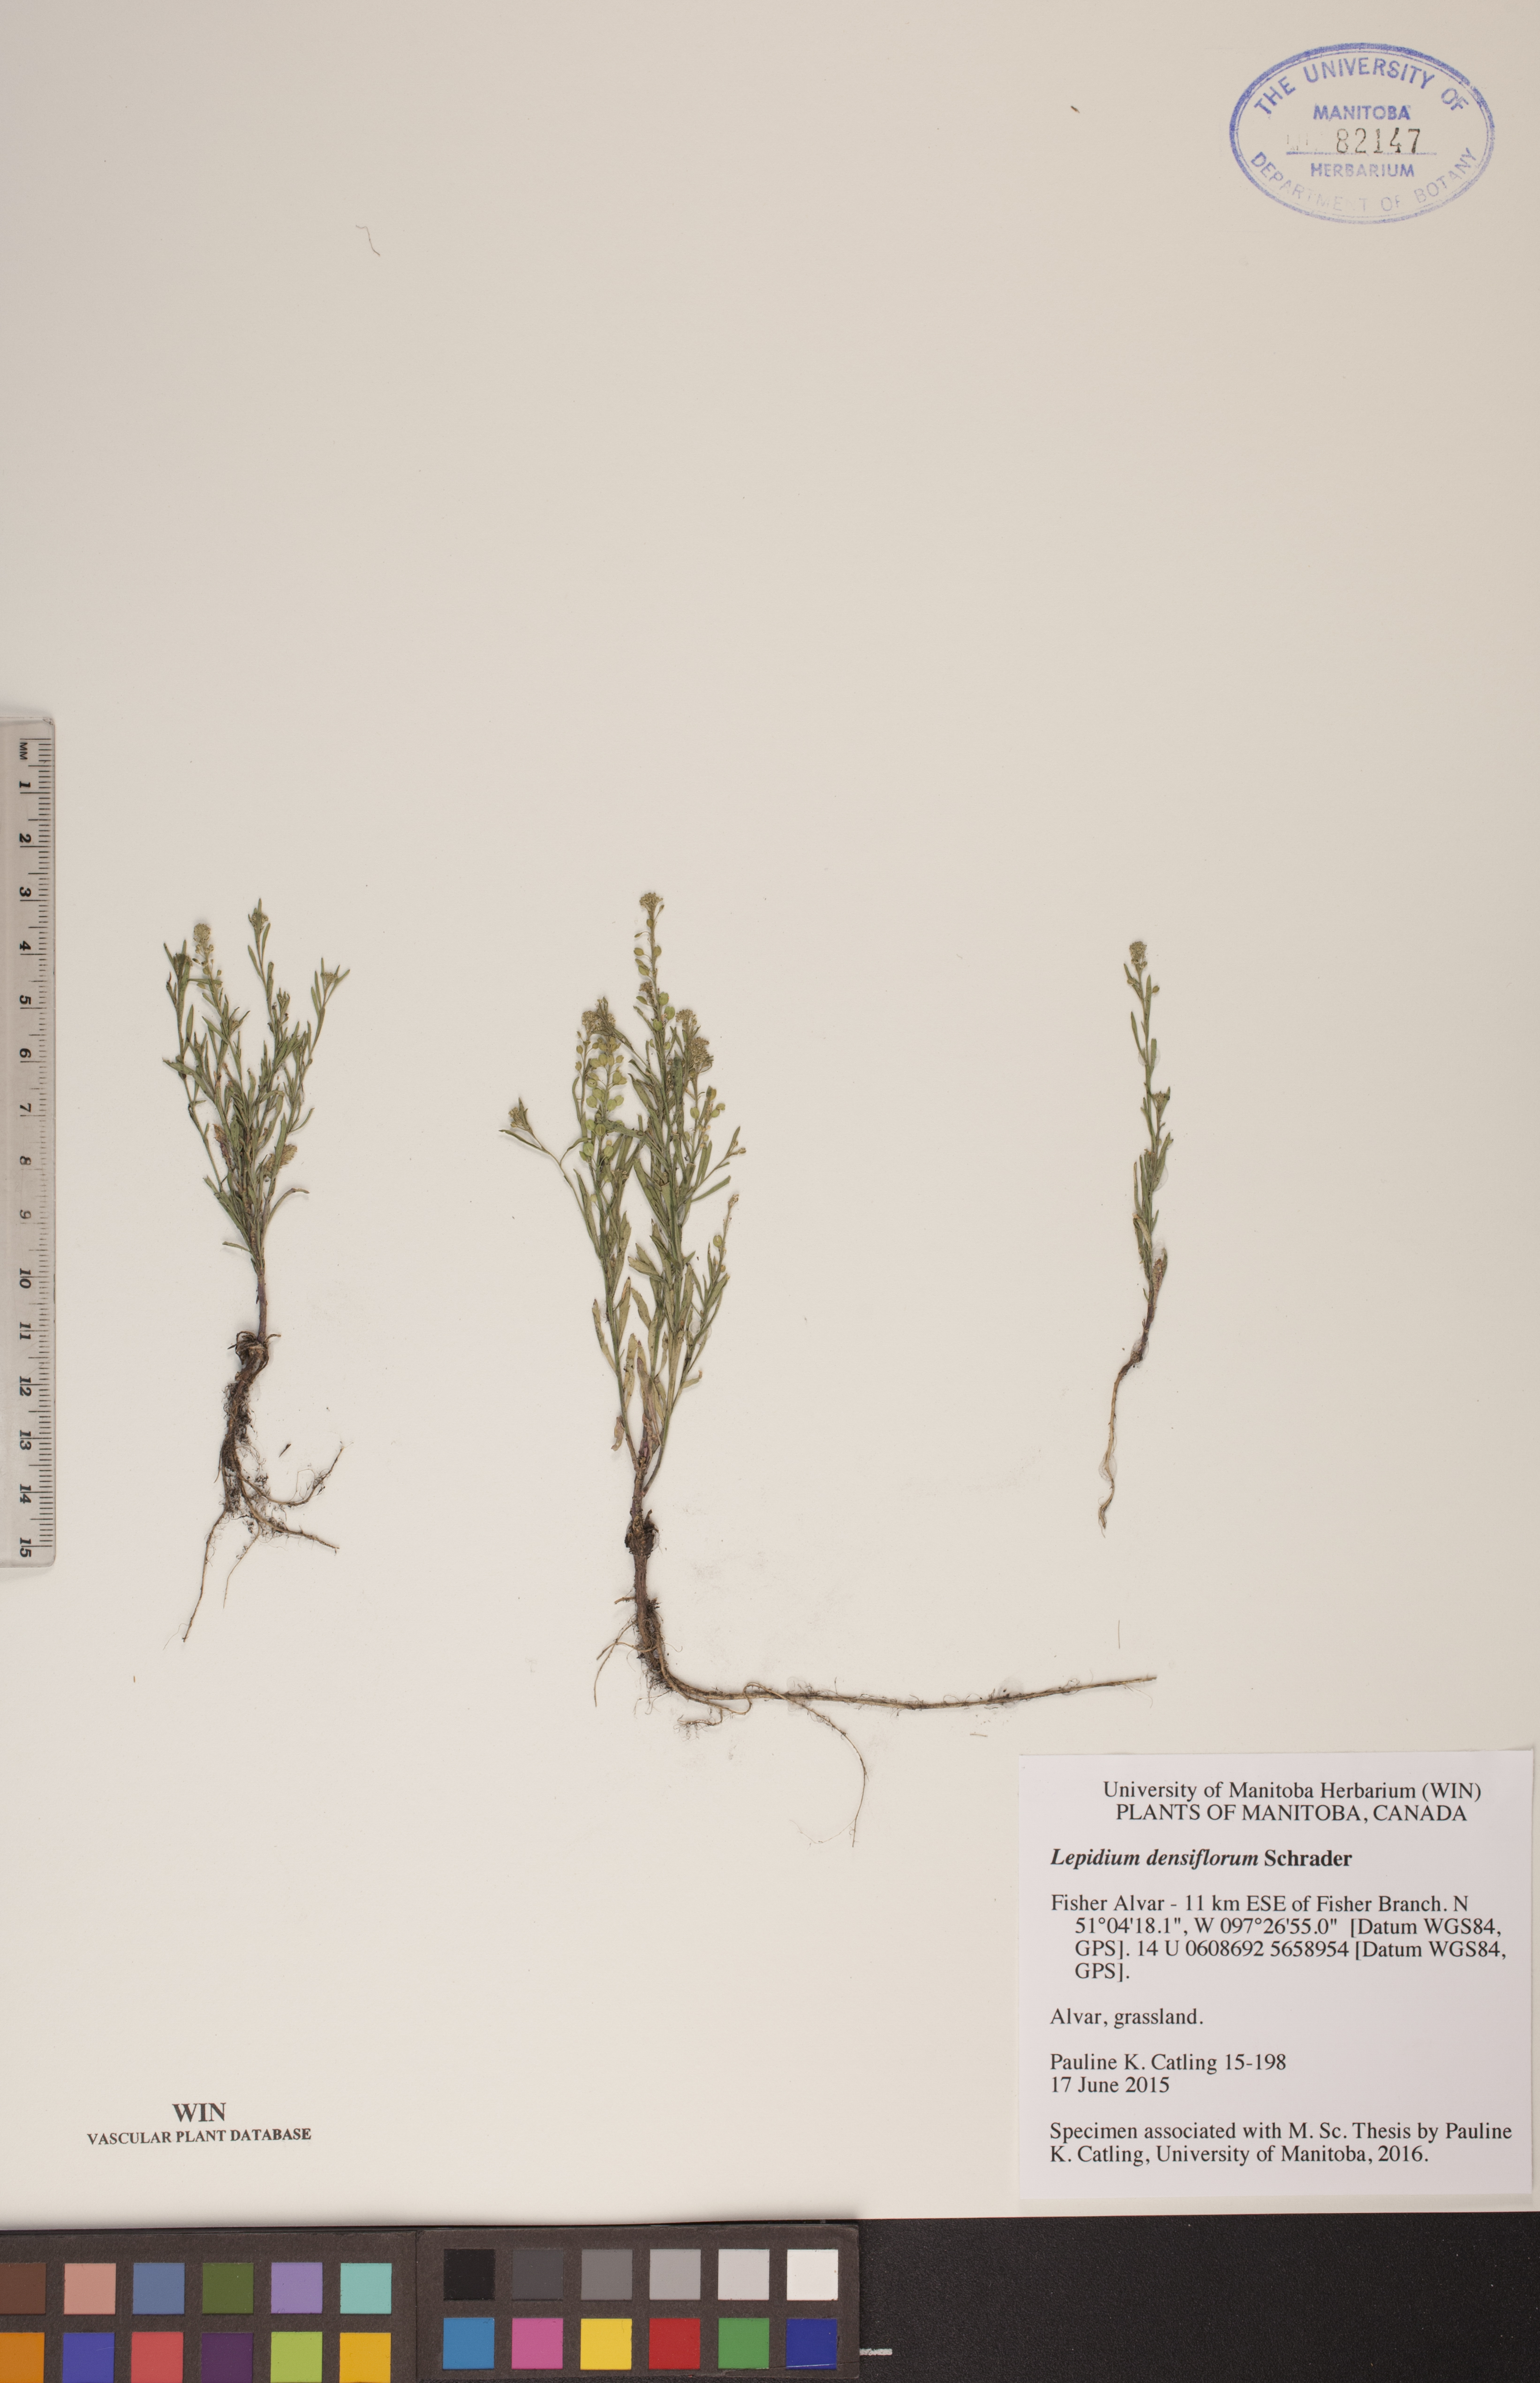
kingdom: Plantae
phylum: Tracheophyta
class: Magnoliopsida
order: Brassicales
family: Brassicaceae
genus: Lepidium
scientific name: Lepidium densiflorum
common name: Miner's pepperwort
